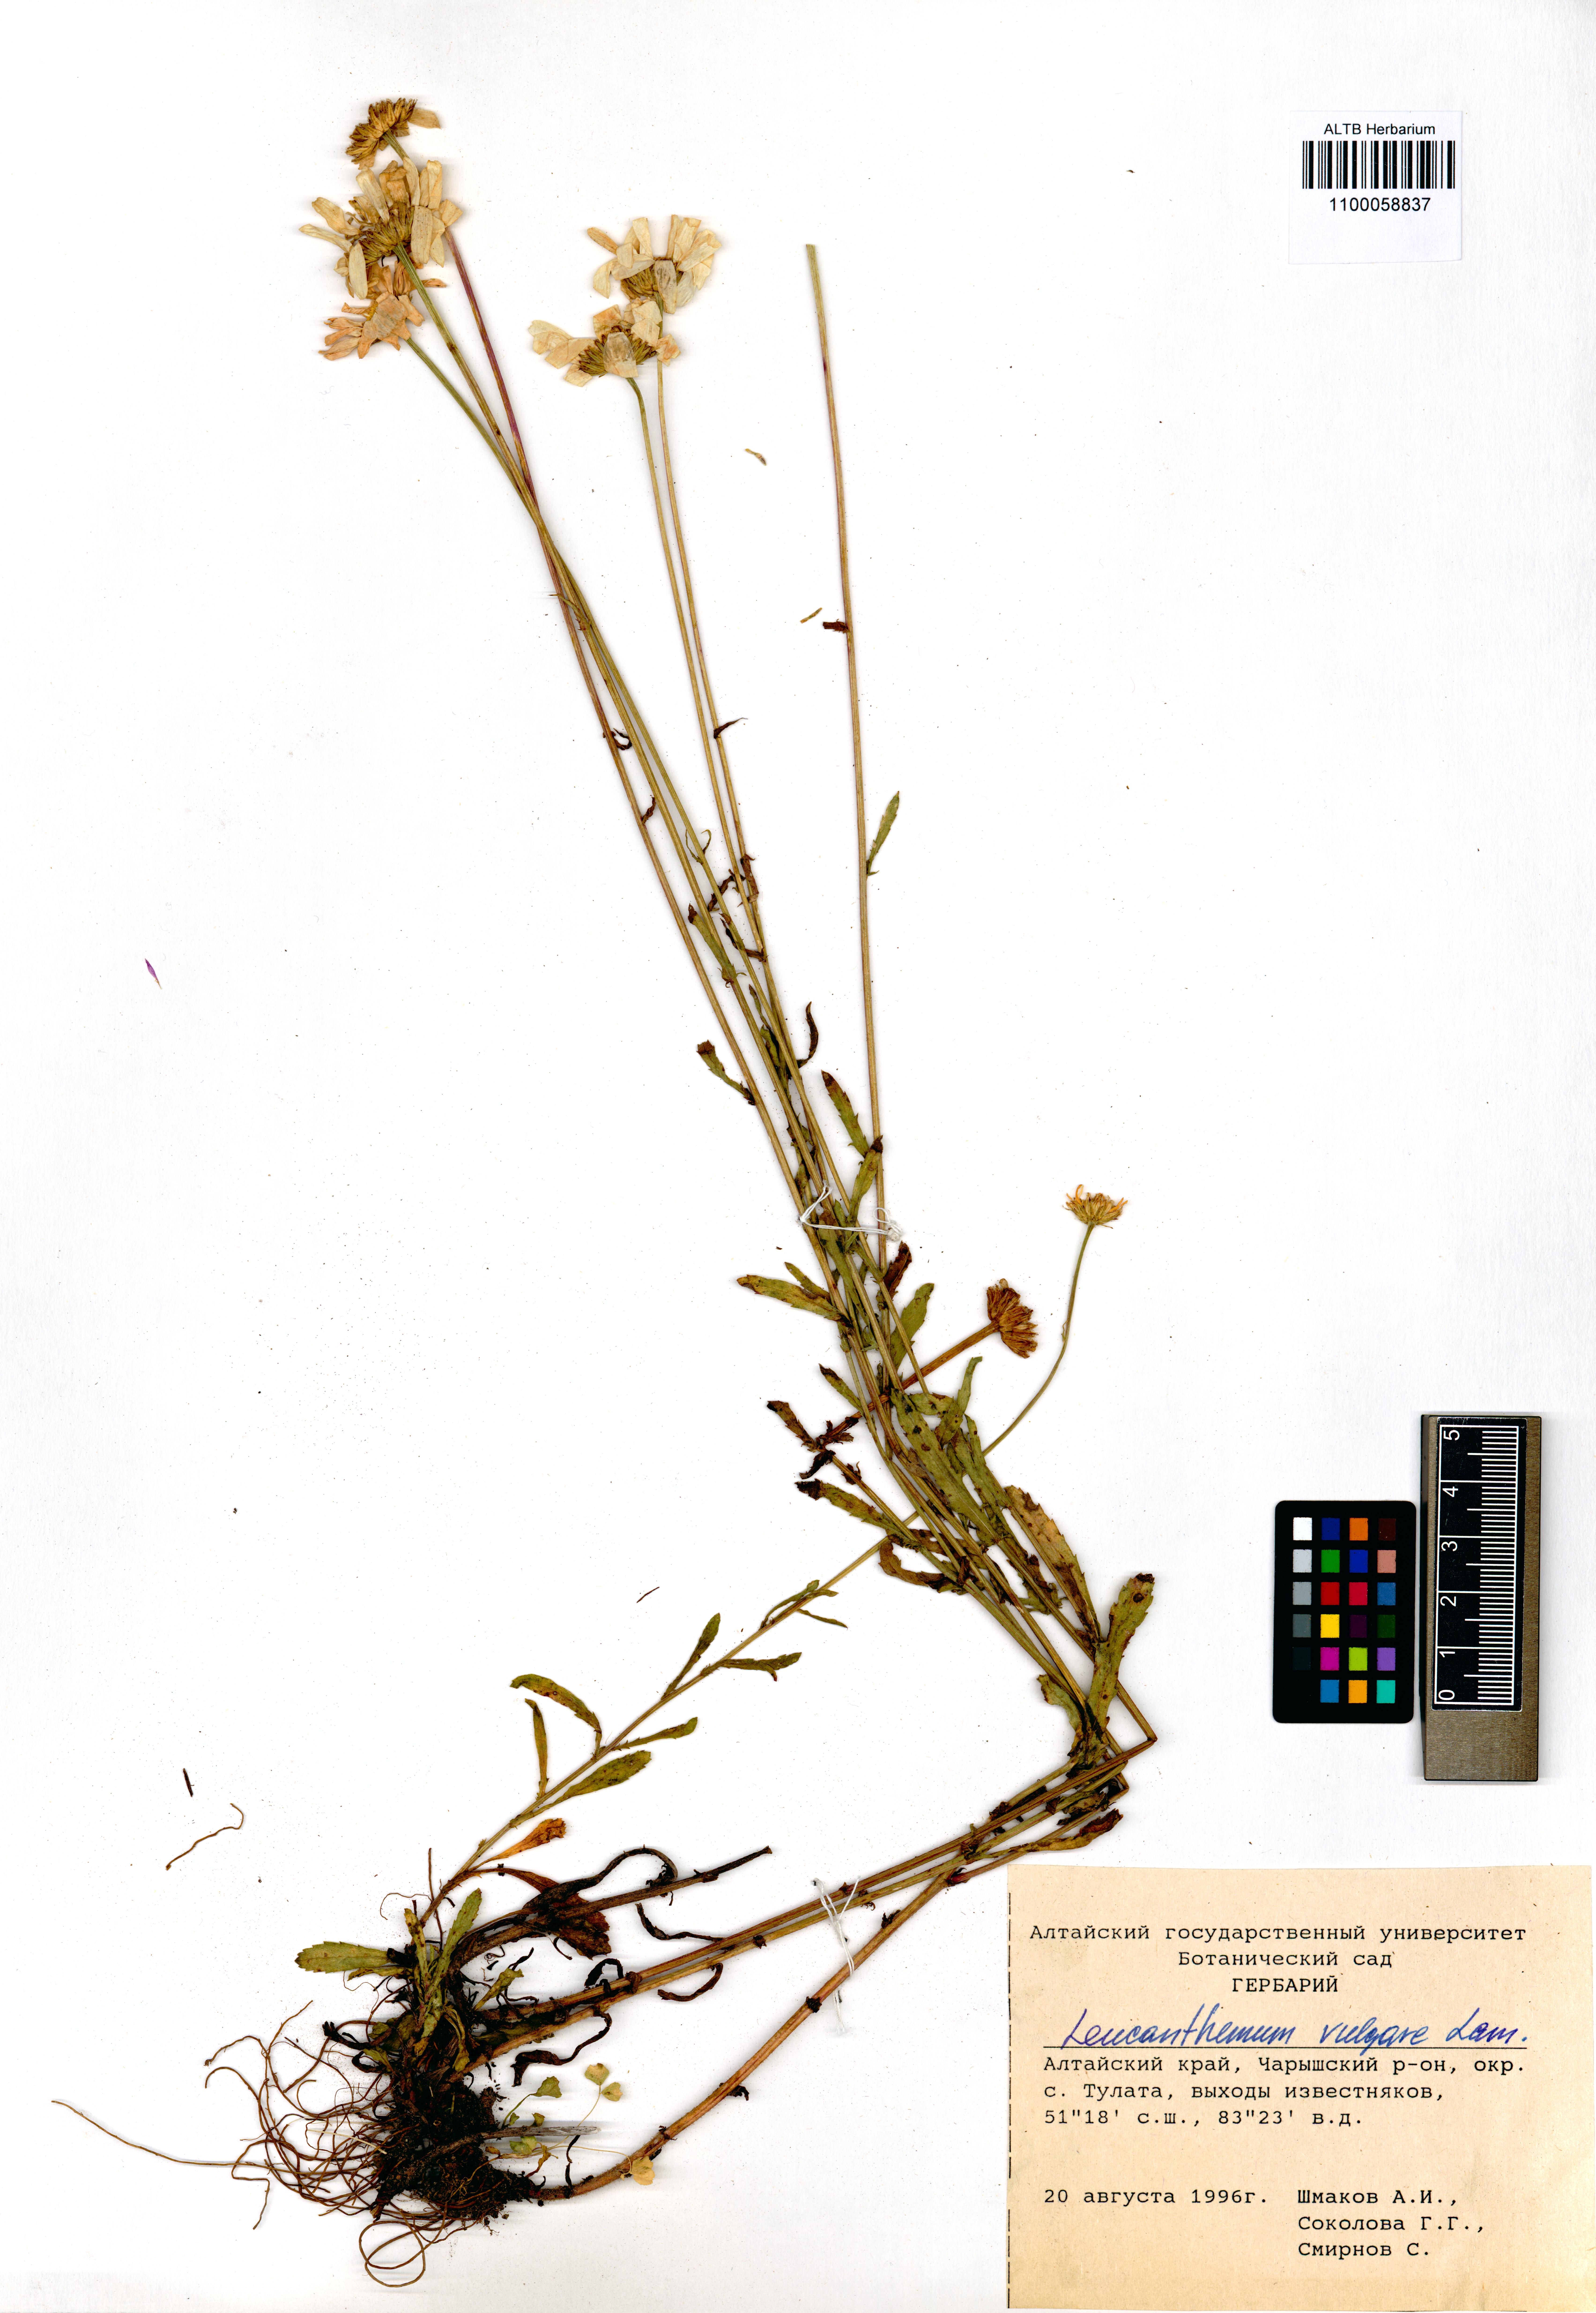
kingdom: Plantae
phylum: Tracheophyta
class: Magnoliopsida
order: Asterales
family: Asteraceae
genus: Leucanthemum
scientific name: Leucanthemum vulgare
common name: Oxeye daisy
